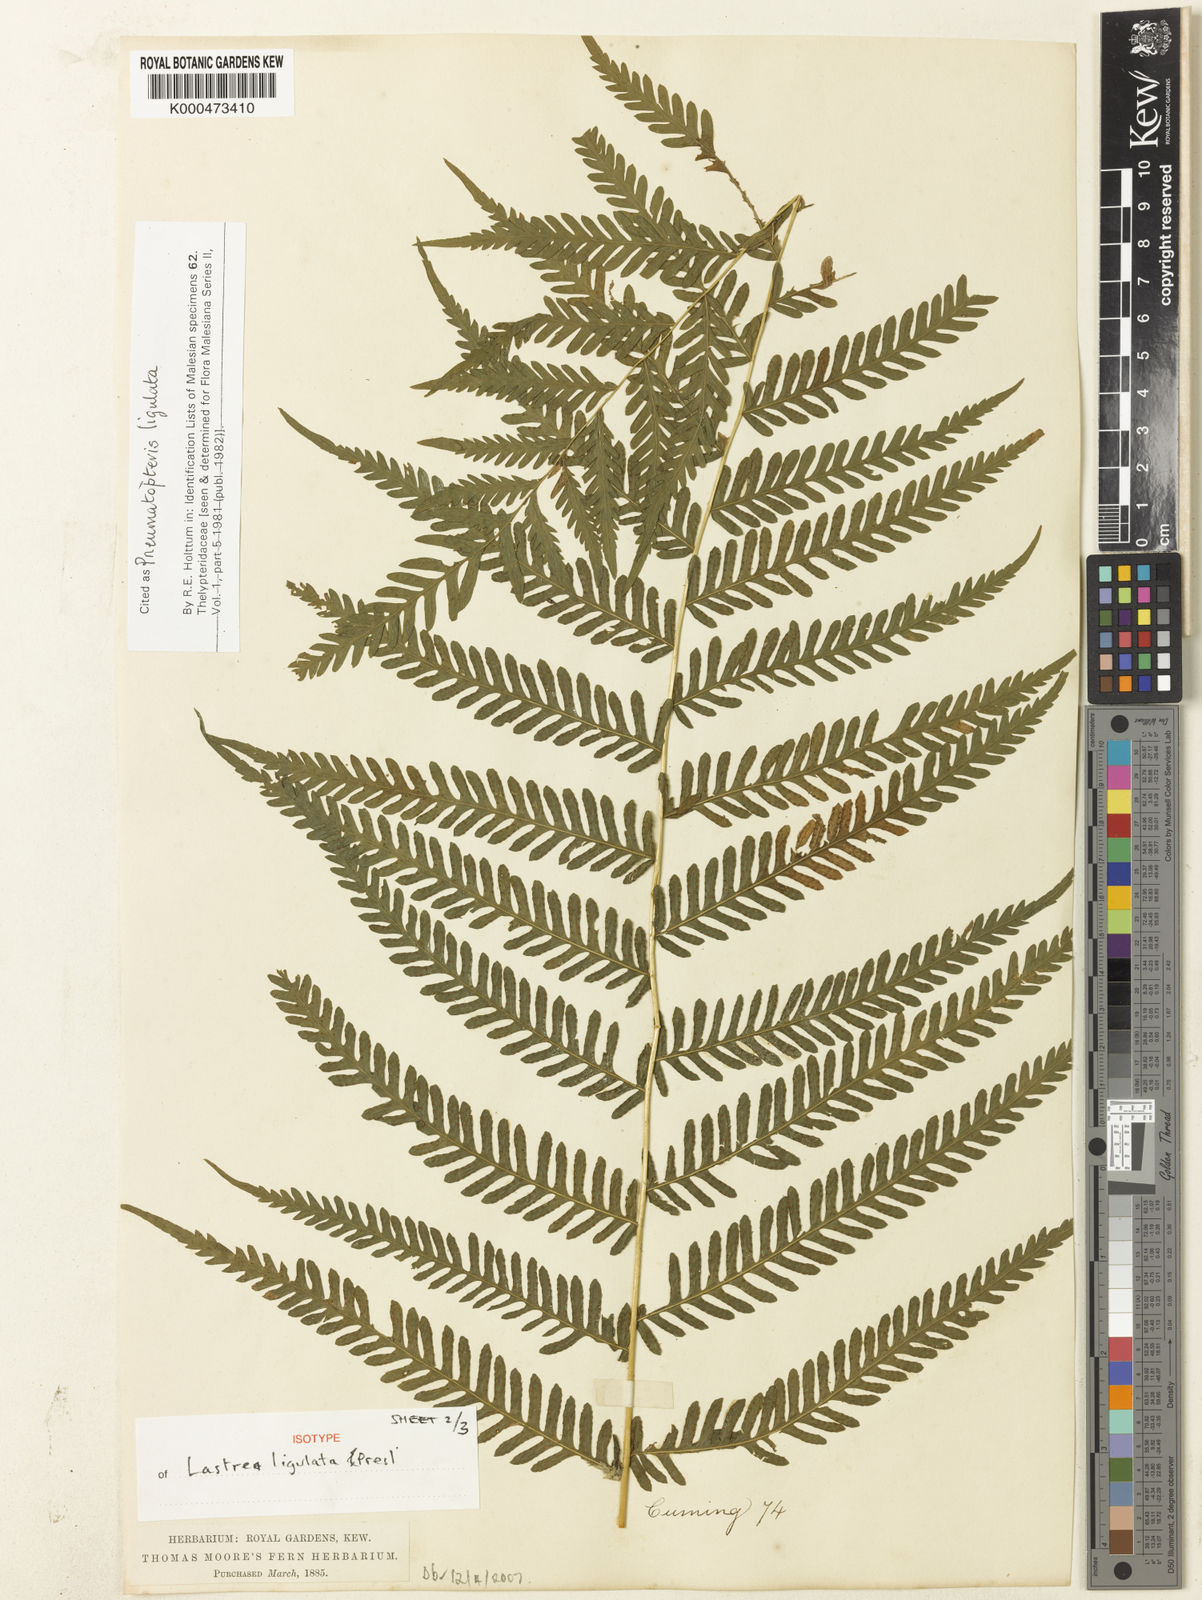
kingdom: Plantae
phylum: Tracheophyta
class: Polypodiopsida
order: Polypodiales
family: Thelypteridaceae
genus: Plesioneuron
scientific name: Plesioneuron ligulatum
